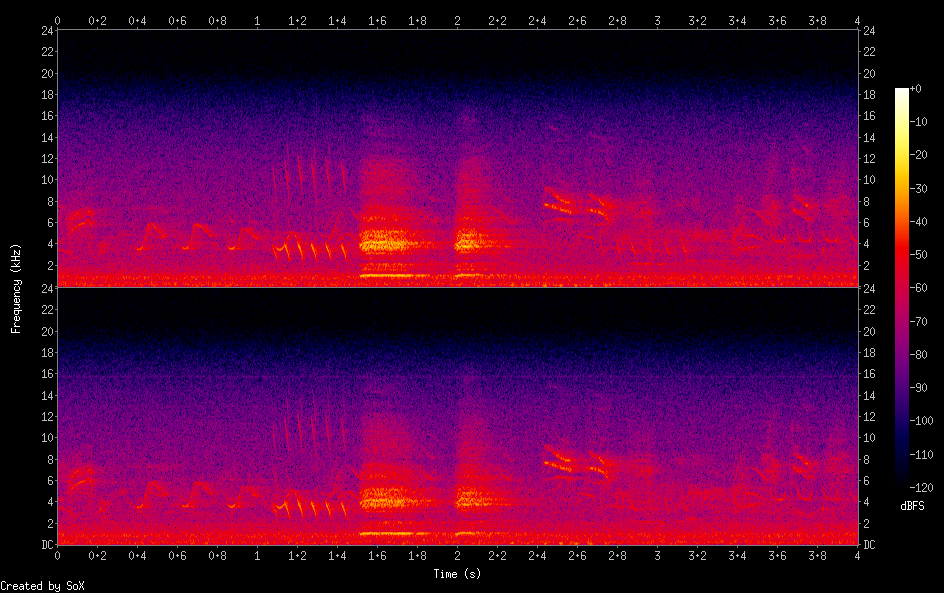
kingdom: Animalia
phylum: Chordata
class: Aves
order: Galliformes
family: Phasianidae
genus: Phasianus
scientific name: Phasianus colchicus
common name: Common pheasant
